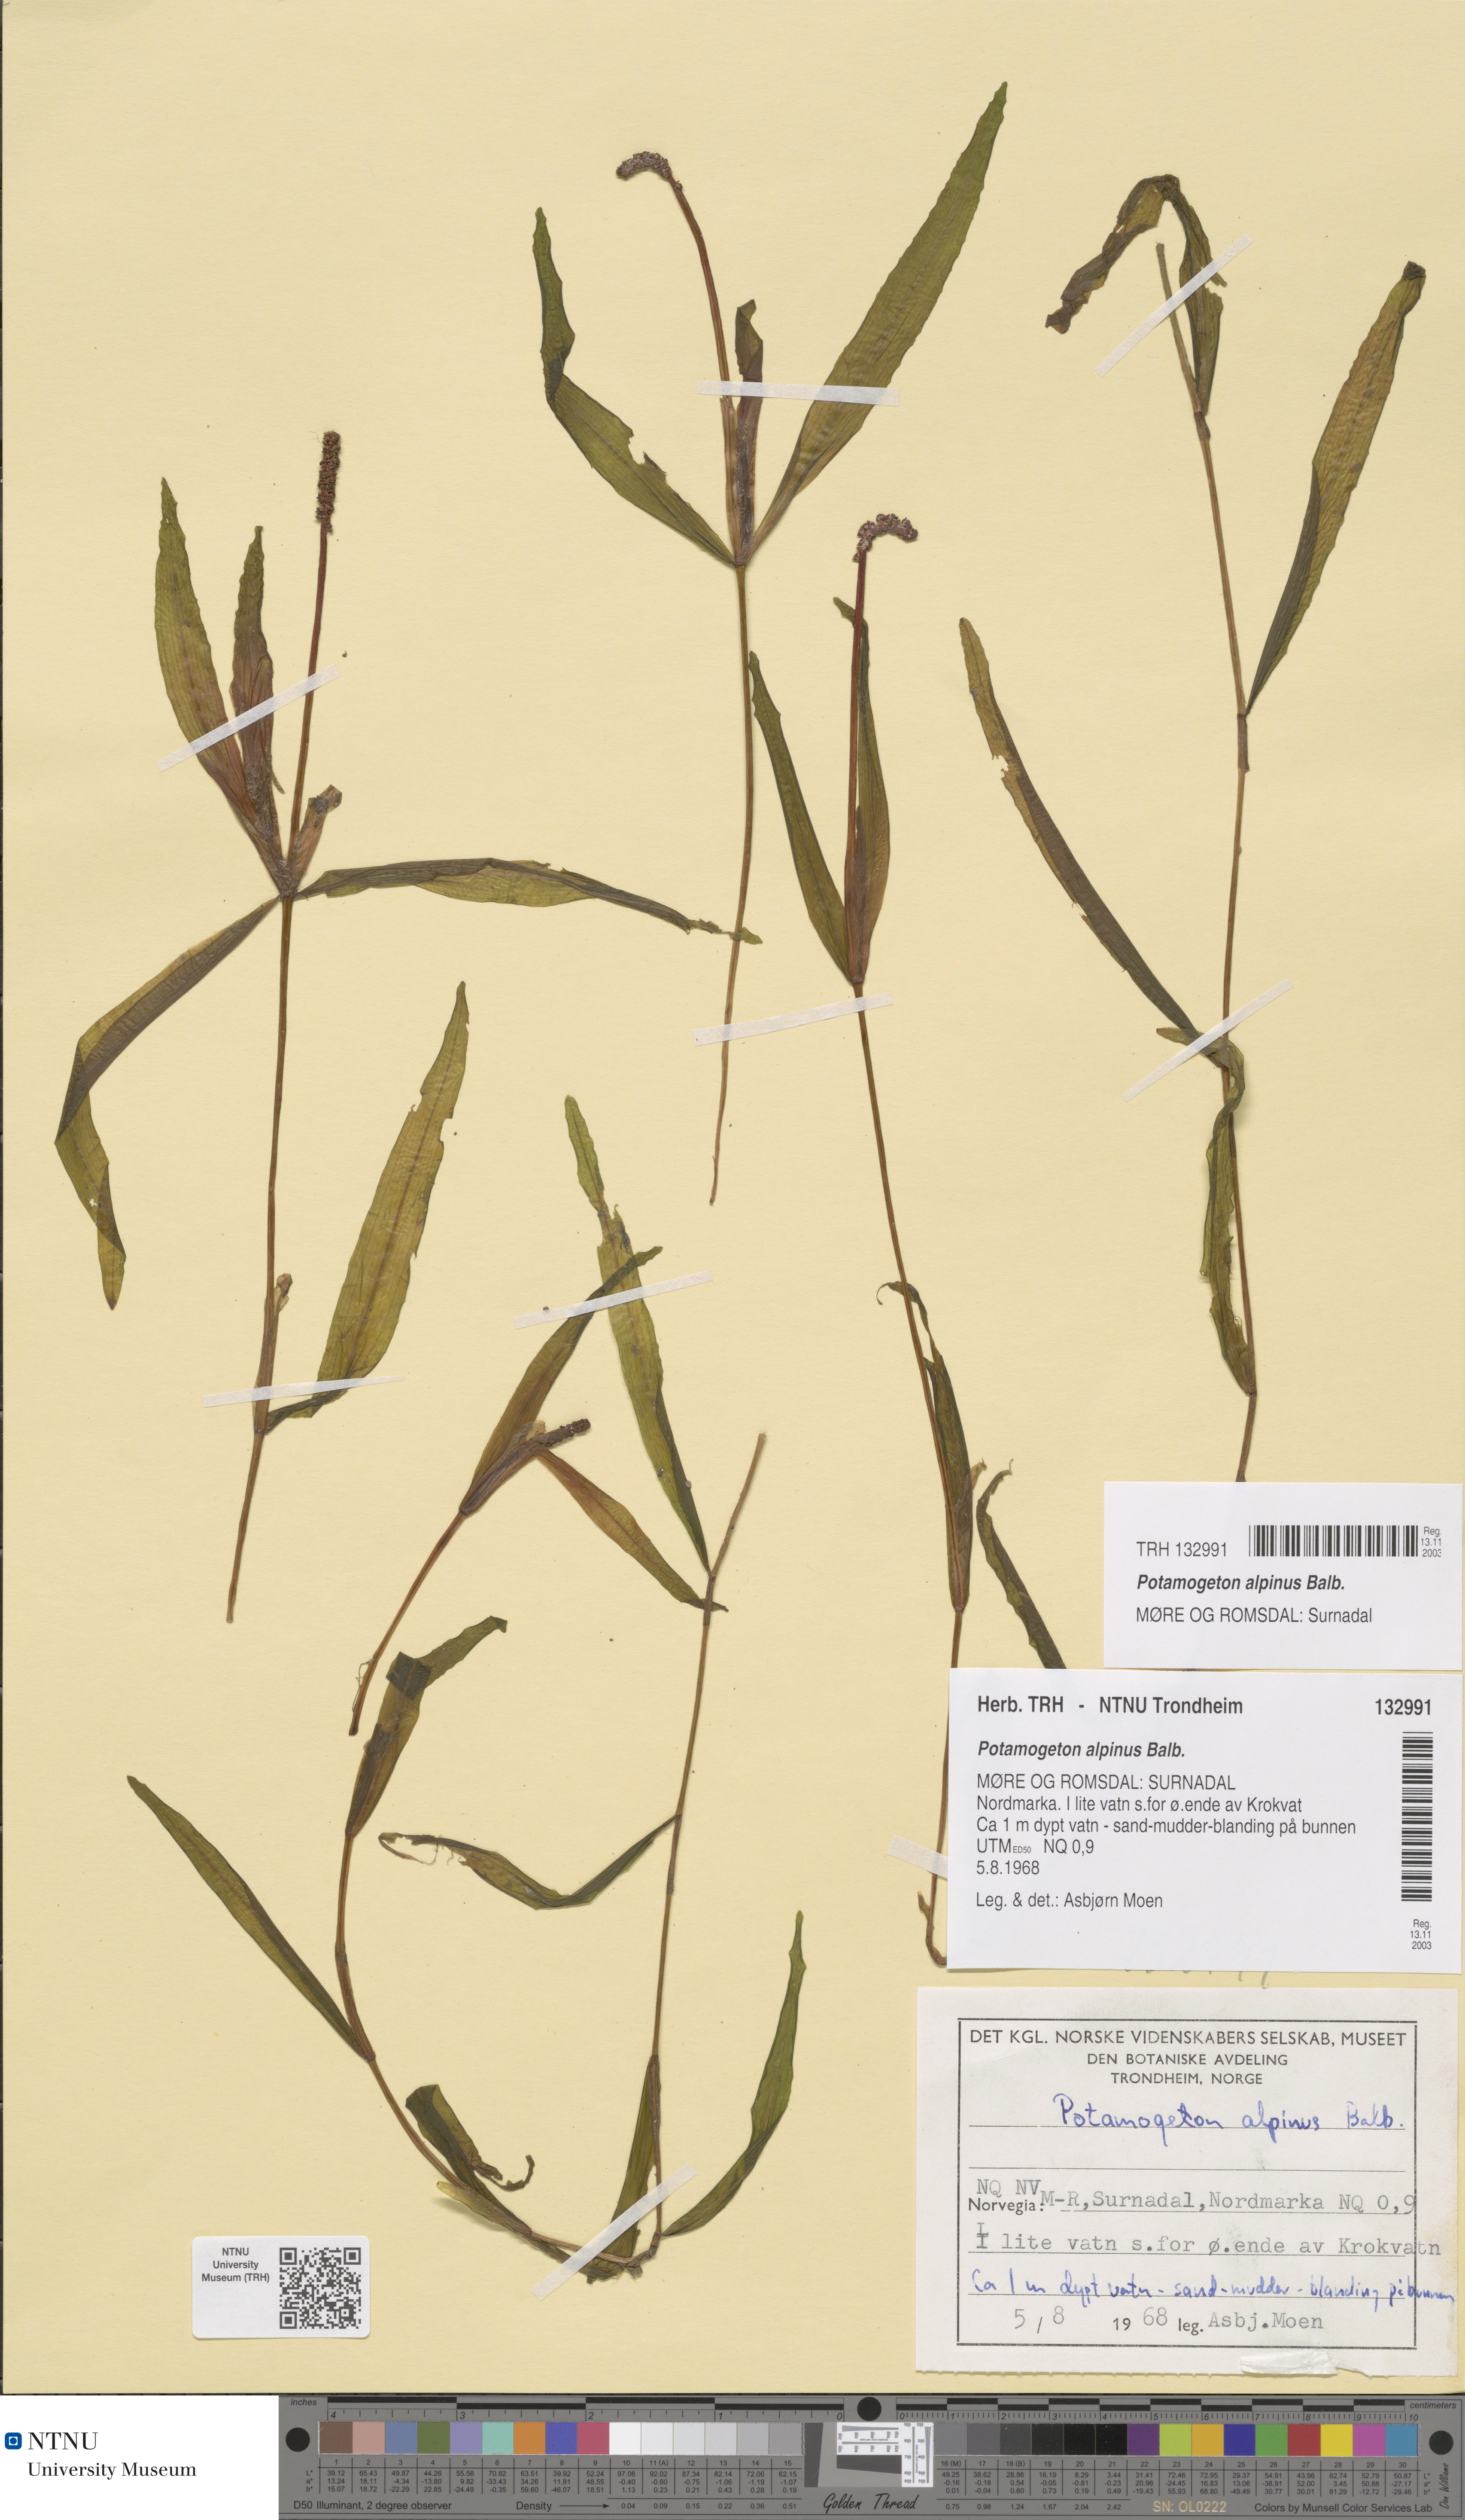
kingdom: Plantae
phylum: Tracheophyta
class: Liliopsida
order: Alismatales
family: Potamogetonaceae
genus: Potamogeton
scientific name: Potamogeton alpinus
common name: Red pondweed
